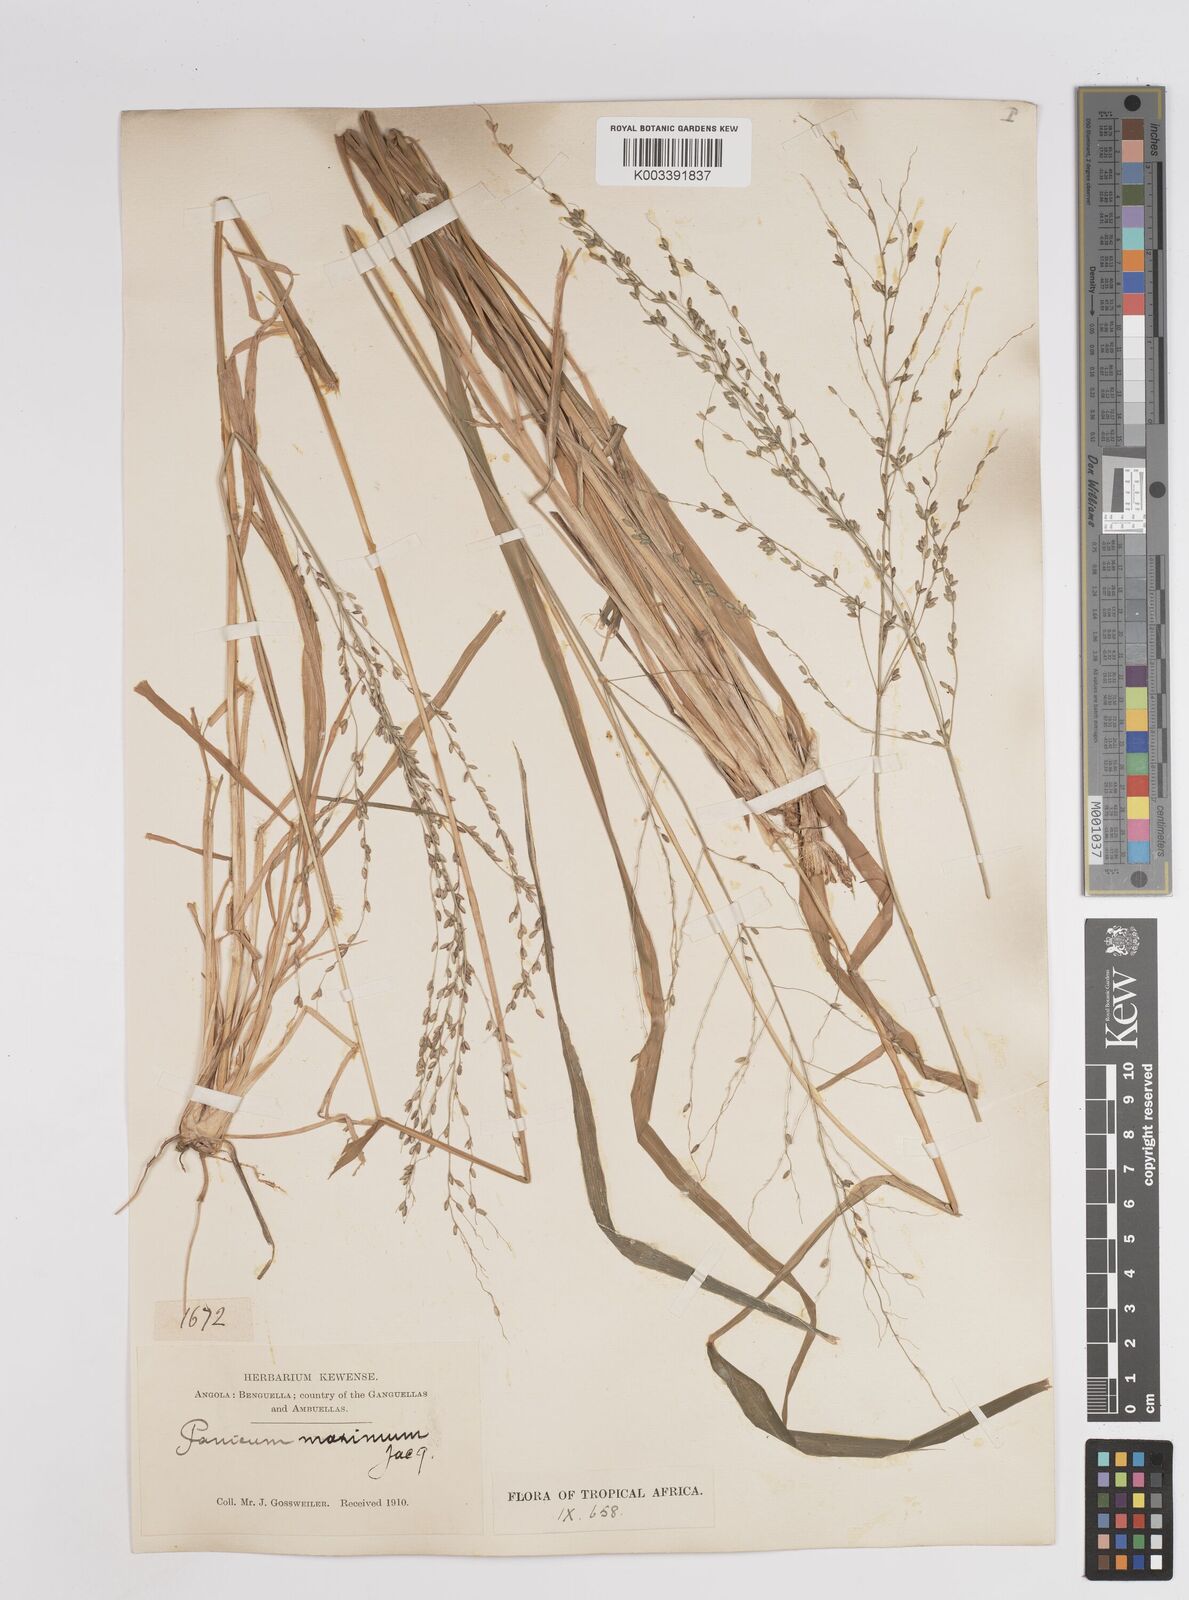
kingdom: Plantae
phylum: Tracheophyta
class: Liliopsida
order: Poales
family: Poaceae
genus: Megathyrsus
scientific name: Megathyrsus maximus
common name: Guineagrass
